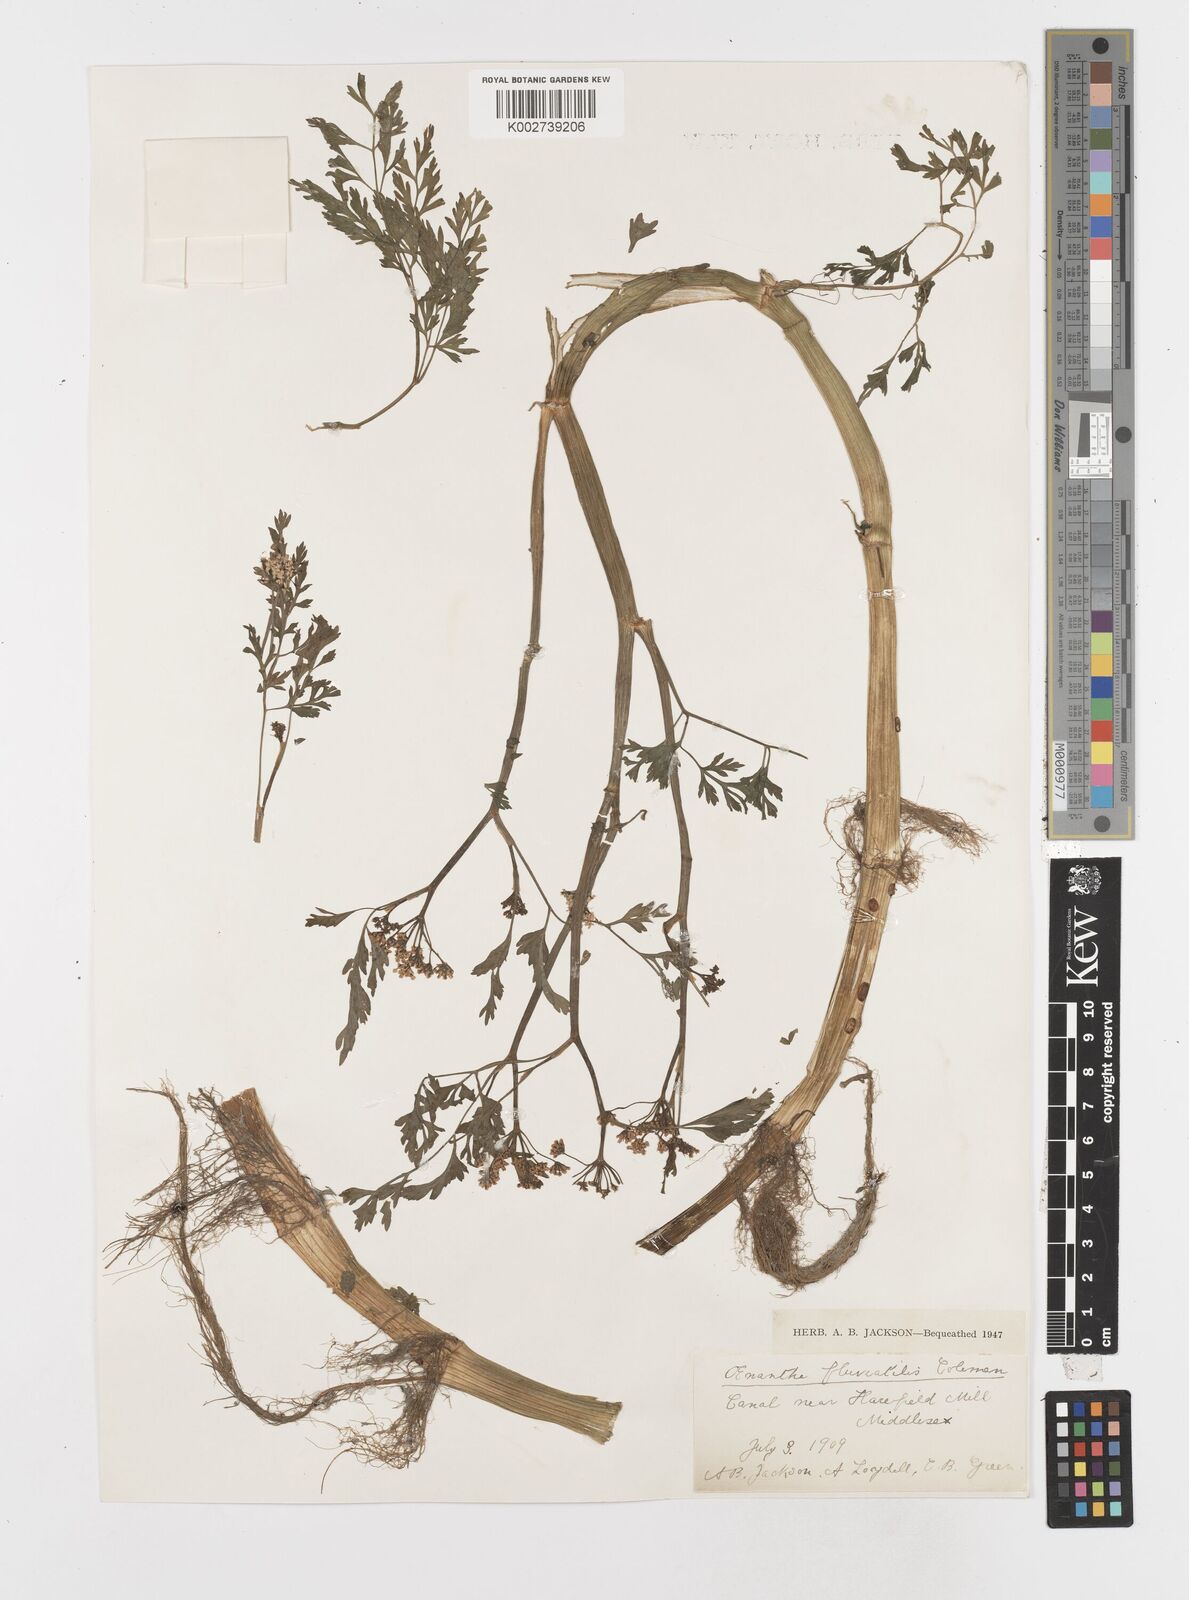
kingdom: Plantae
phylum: Tracheophyta
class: Magnoliopsida
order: Apiales
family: Apiaceae
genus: Oenanthe
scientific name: Oenanthe fluviatilis
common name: River water-dropwort
